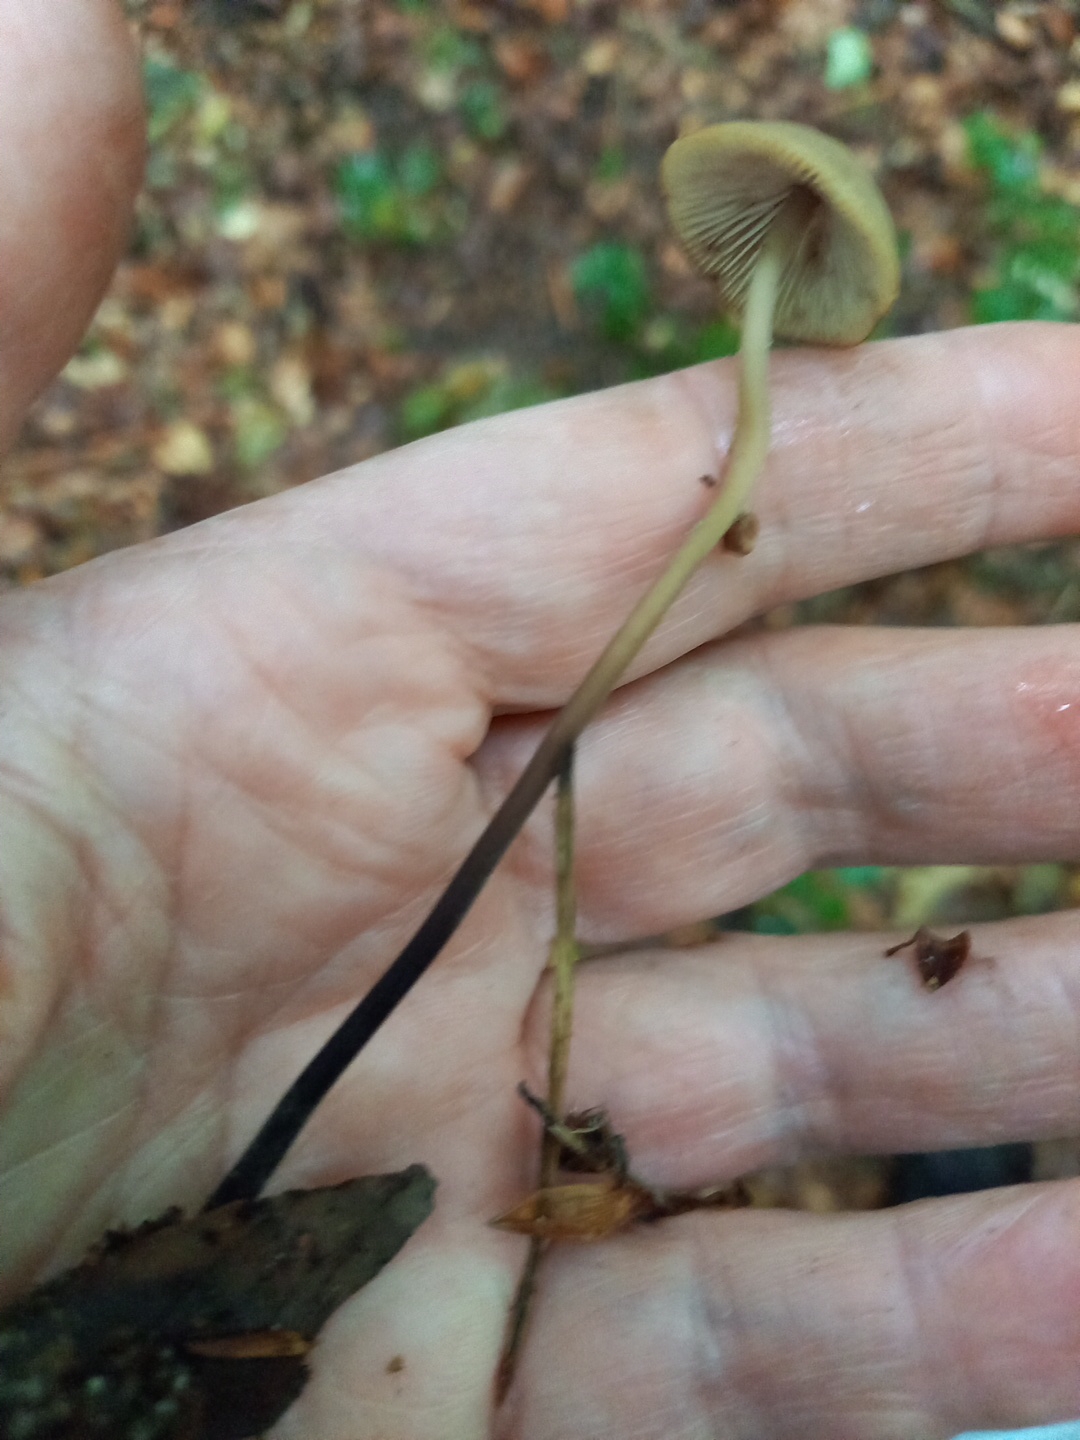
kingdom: Fungi
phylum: Basidiomycota
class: Agaricomycetes
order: Agaricales
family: Omphalotaceae
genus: Mycetinis
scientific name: Mycetinis alliaceus
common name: stor løghat
